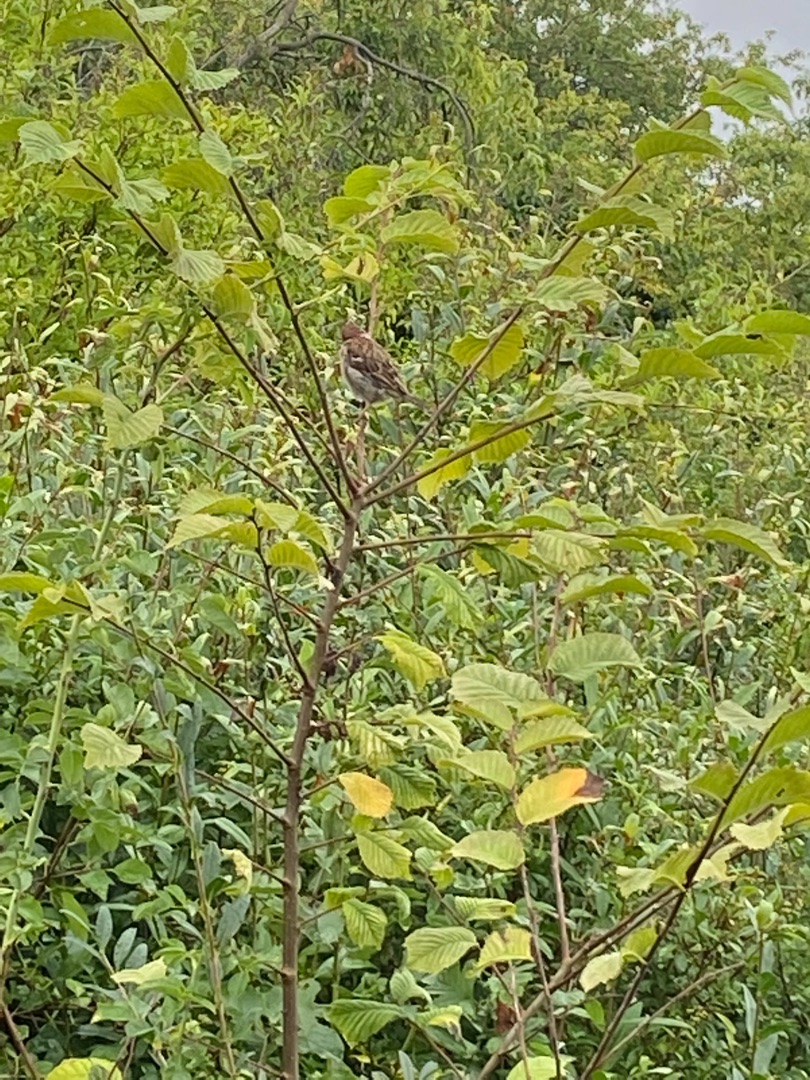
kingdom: Animalia
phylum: Chordata
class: Aves
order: Passeriformes
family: Passeridae
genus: Passer
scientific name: Passer montanus
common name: Skovspurv
